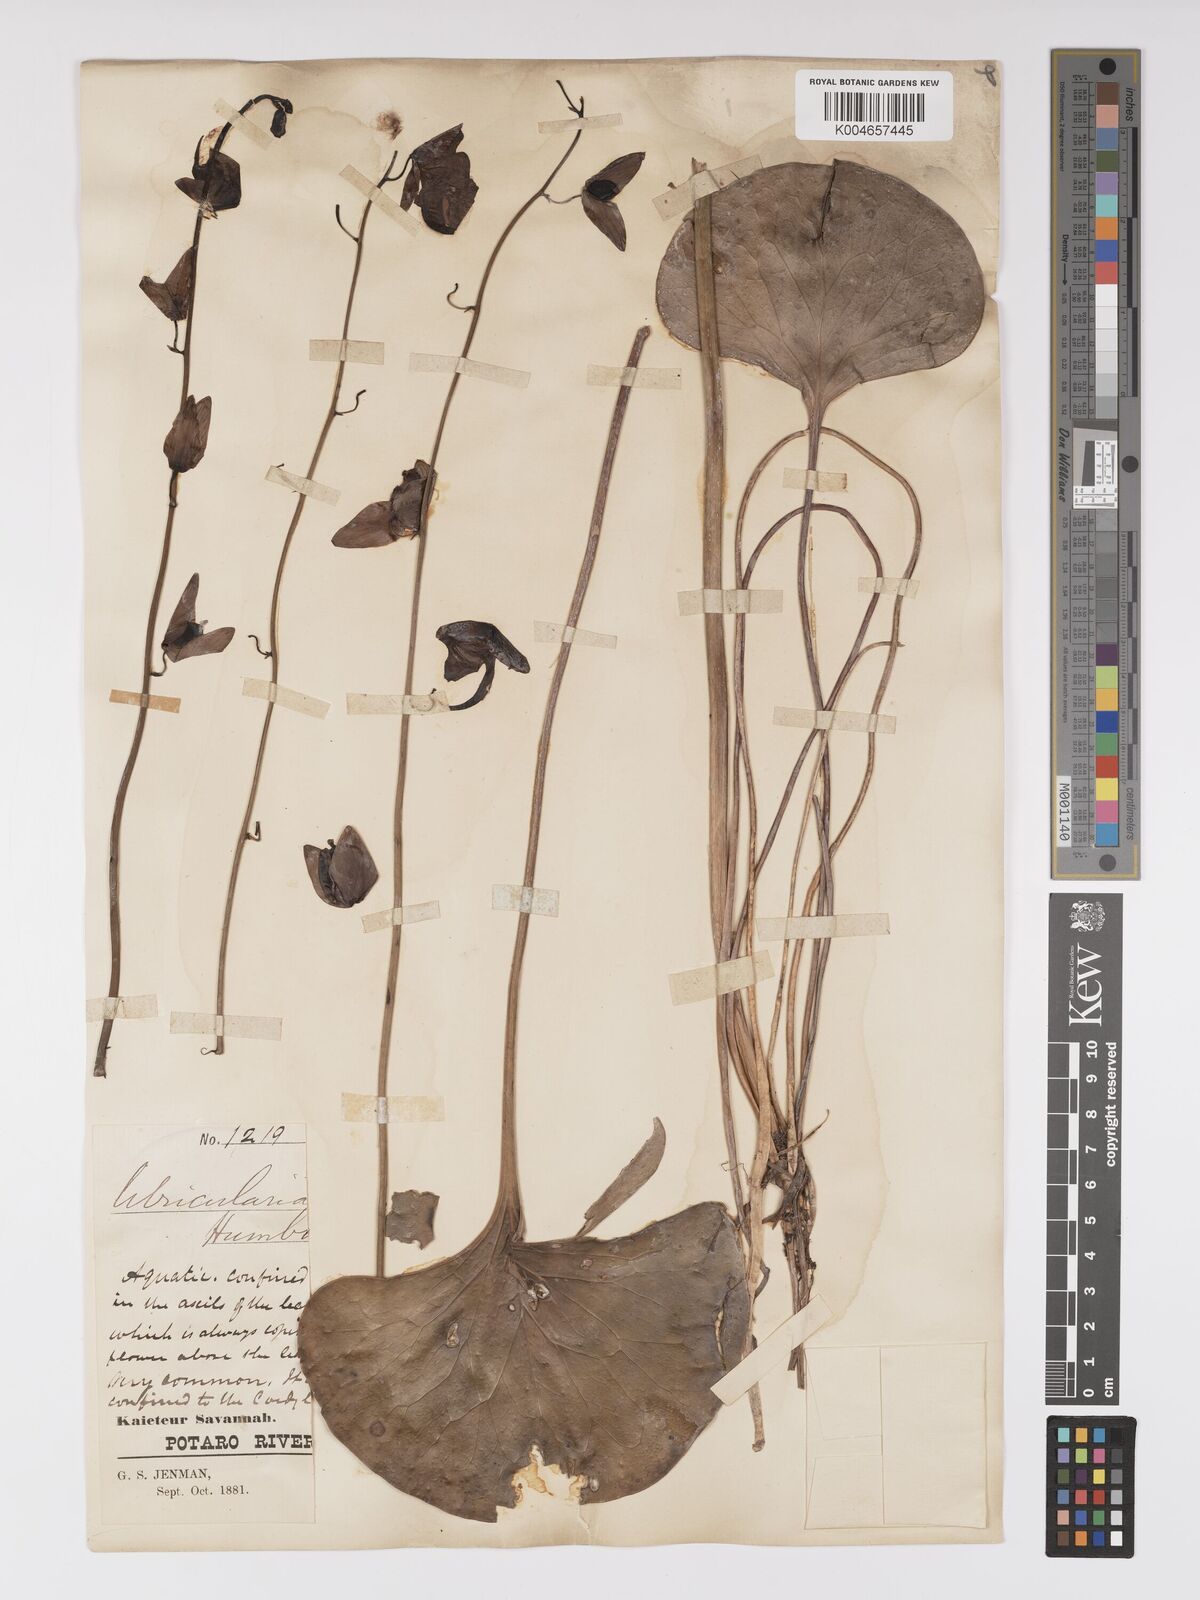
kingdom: Plantae
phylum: Tracheophyta
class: Magnoliopsida
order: Lamiales
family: Lentibulariaceae
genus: Utricularia
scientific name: Utricularia humboldtii
